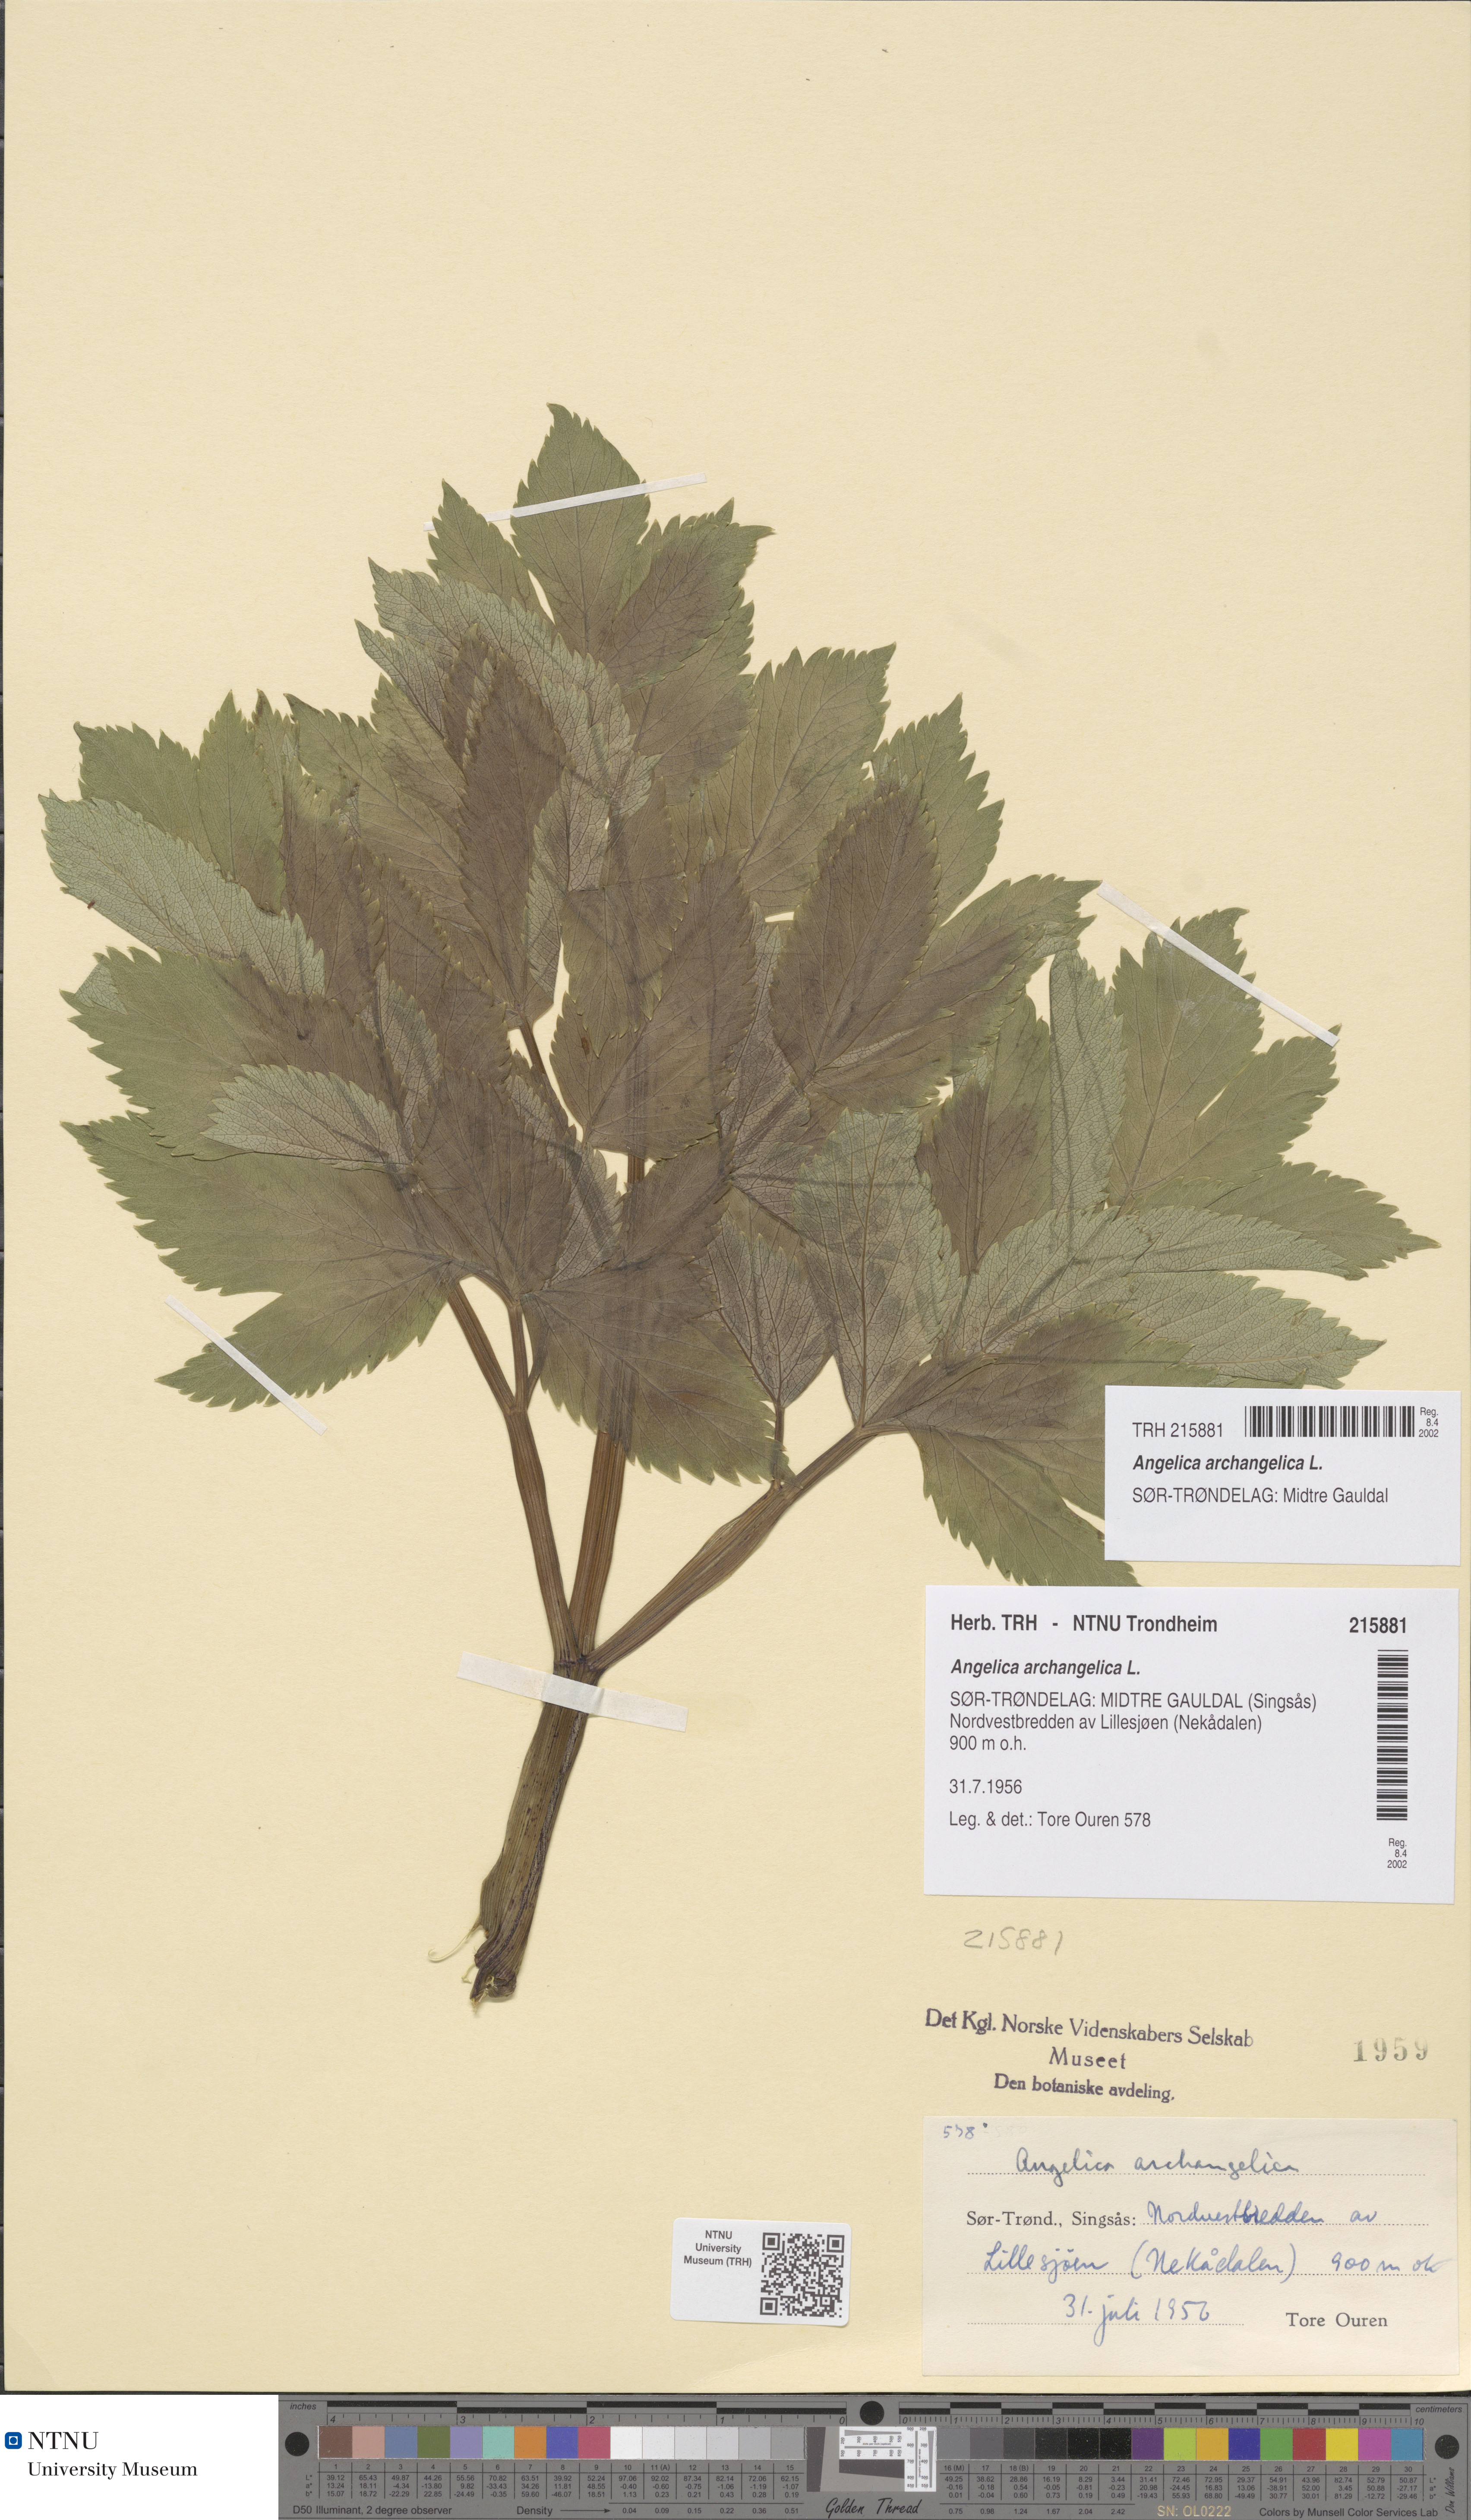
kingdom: Plantae
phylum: Tracheophyta
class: Magnoliopsida
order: Apiales
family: Apiaceae
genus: Angelica
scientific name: Angelica archangelica
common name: Garden angelica
